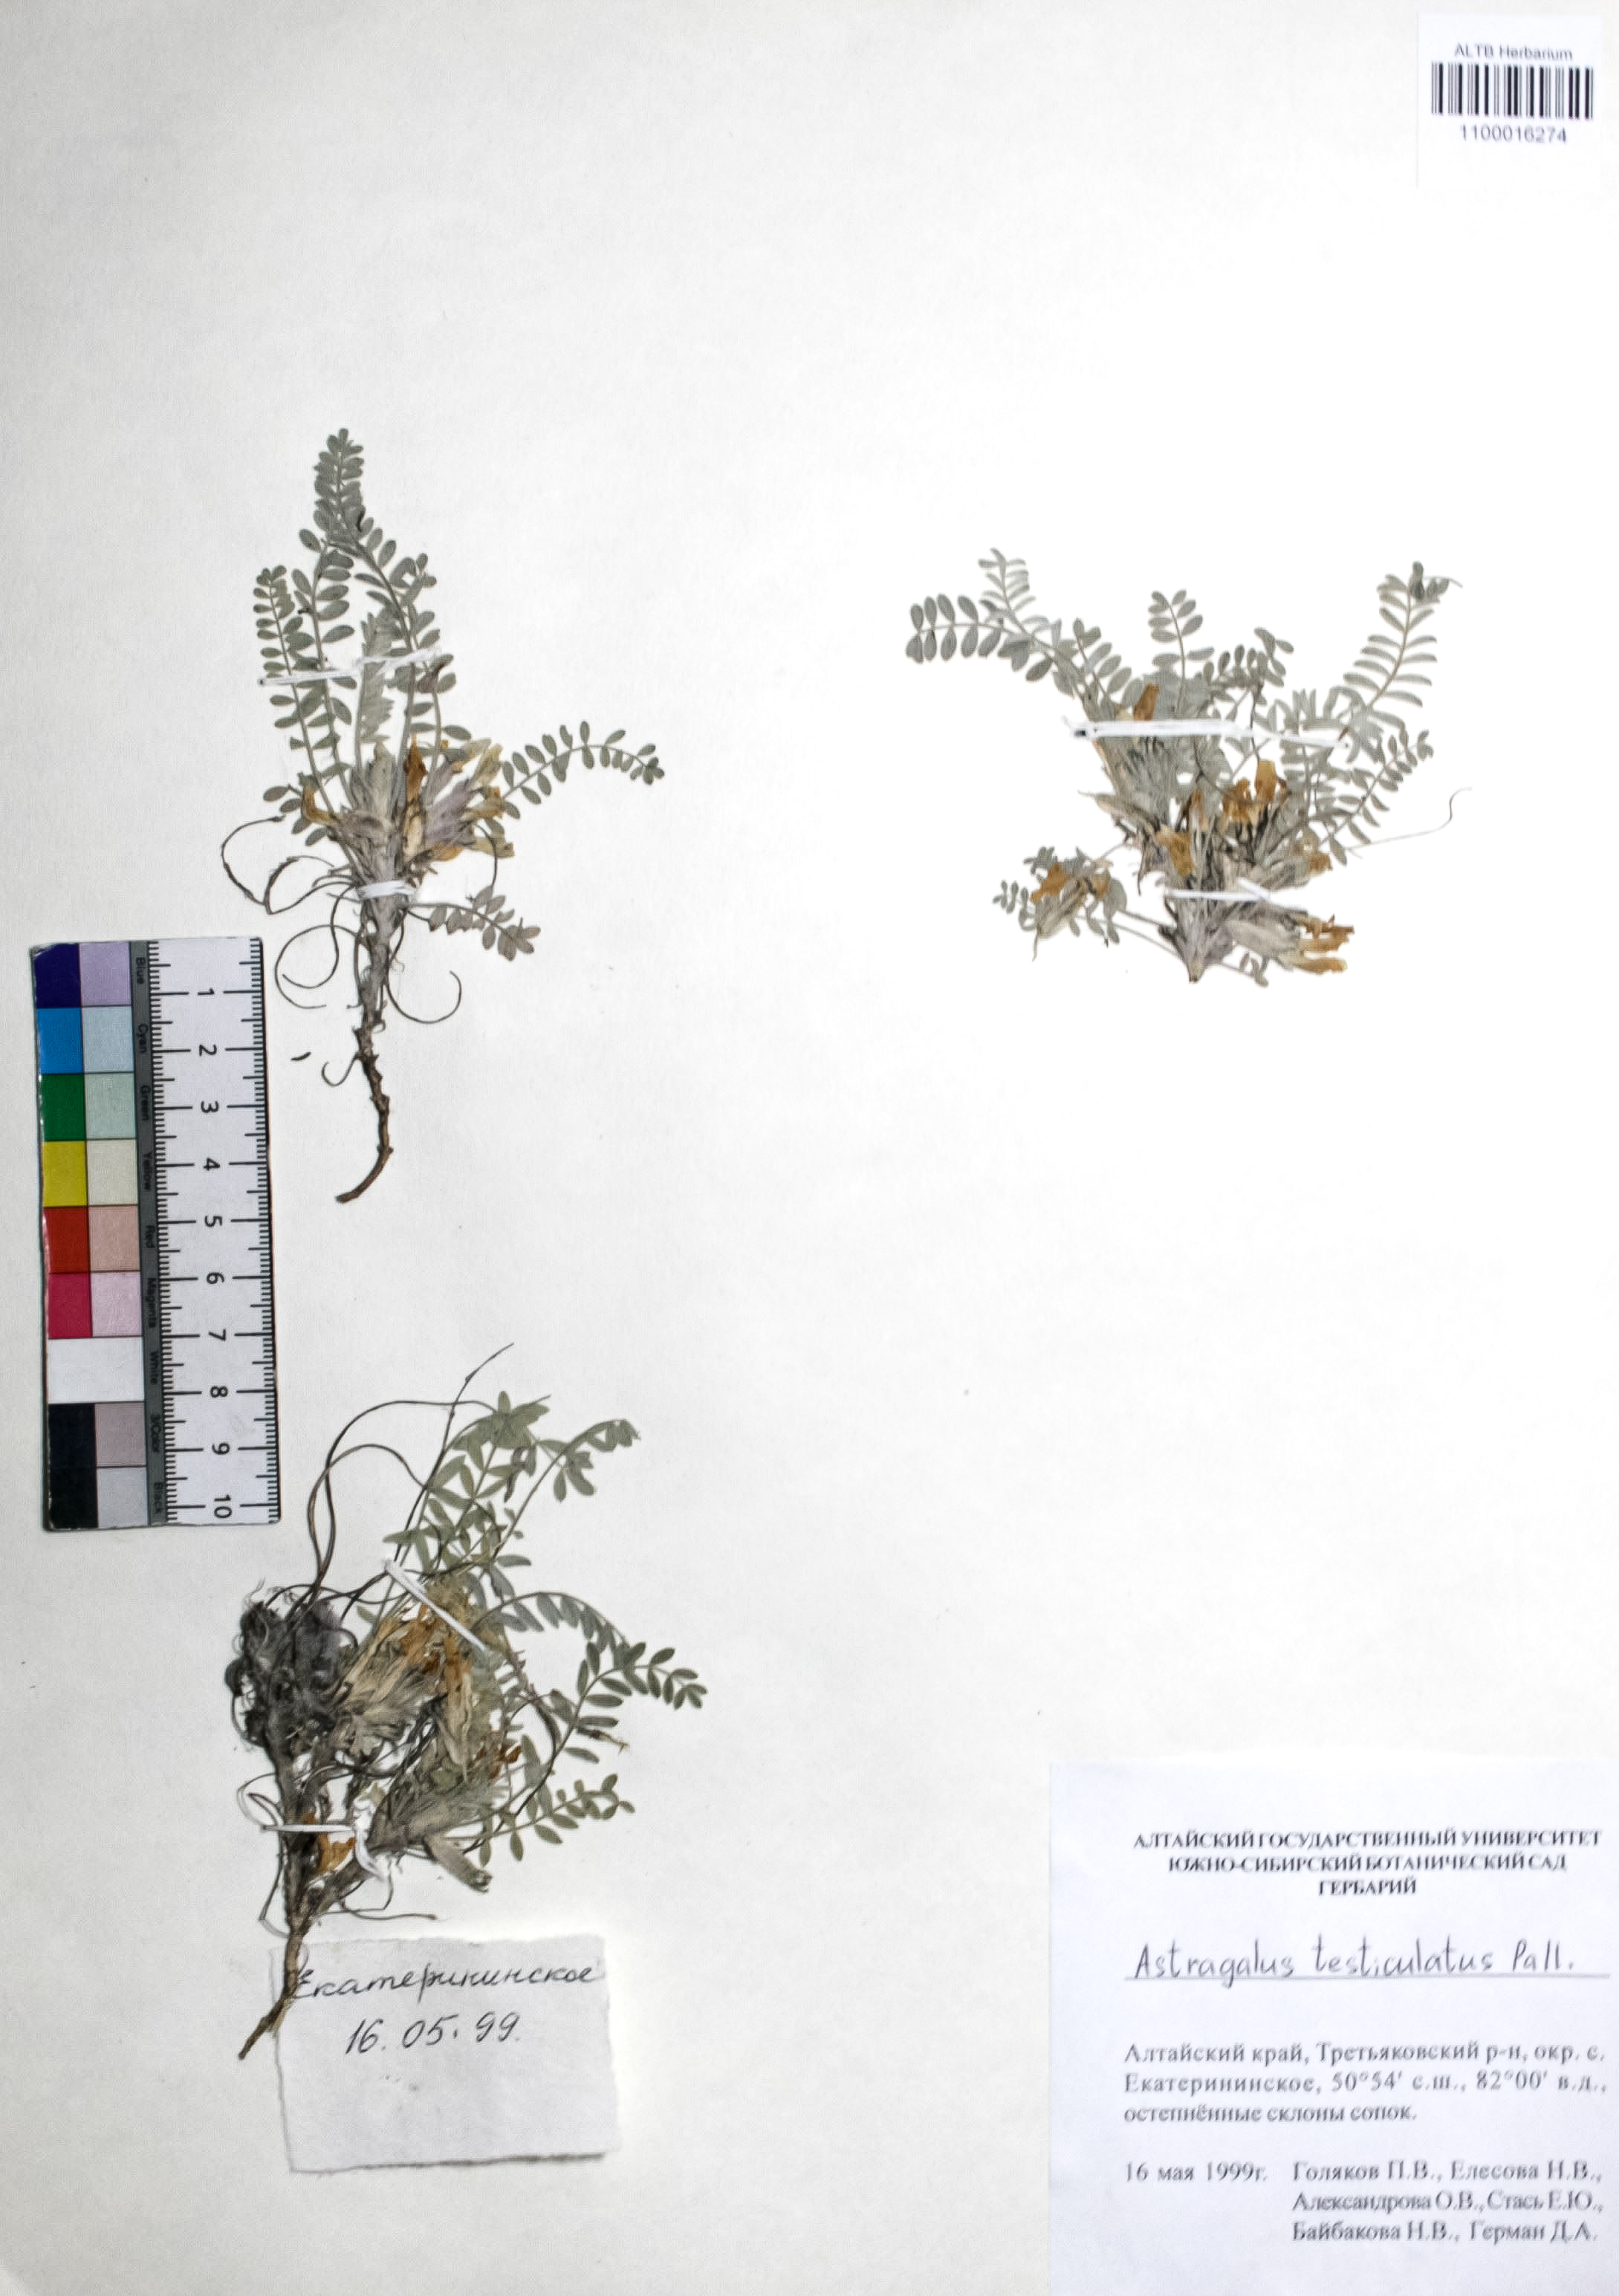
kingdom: Plantae
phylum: Tracheophyta
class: Magnoliopsida
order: Fabales
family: Fabaceae
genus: Astragalus
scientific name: Astragalus testiculatus
